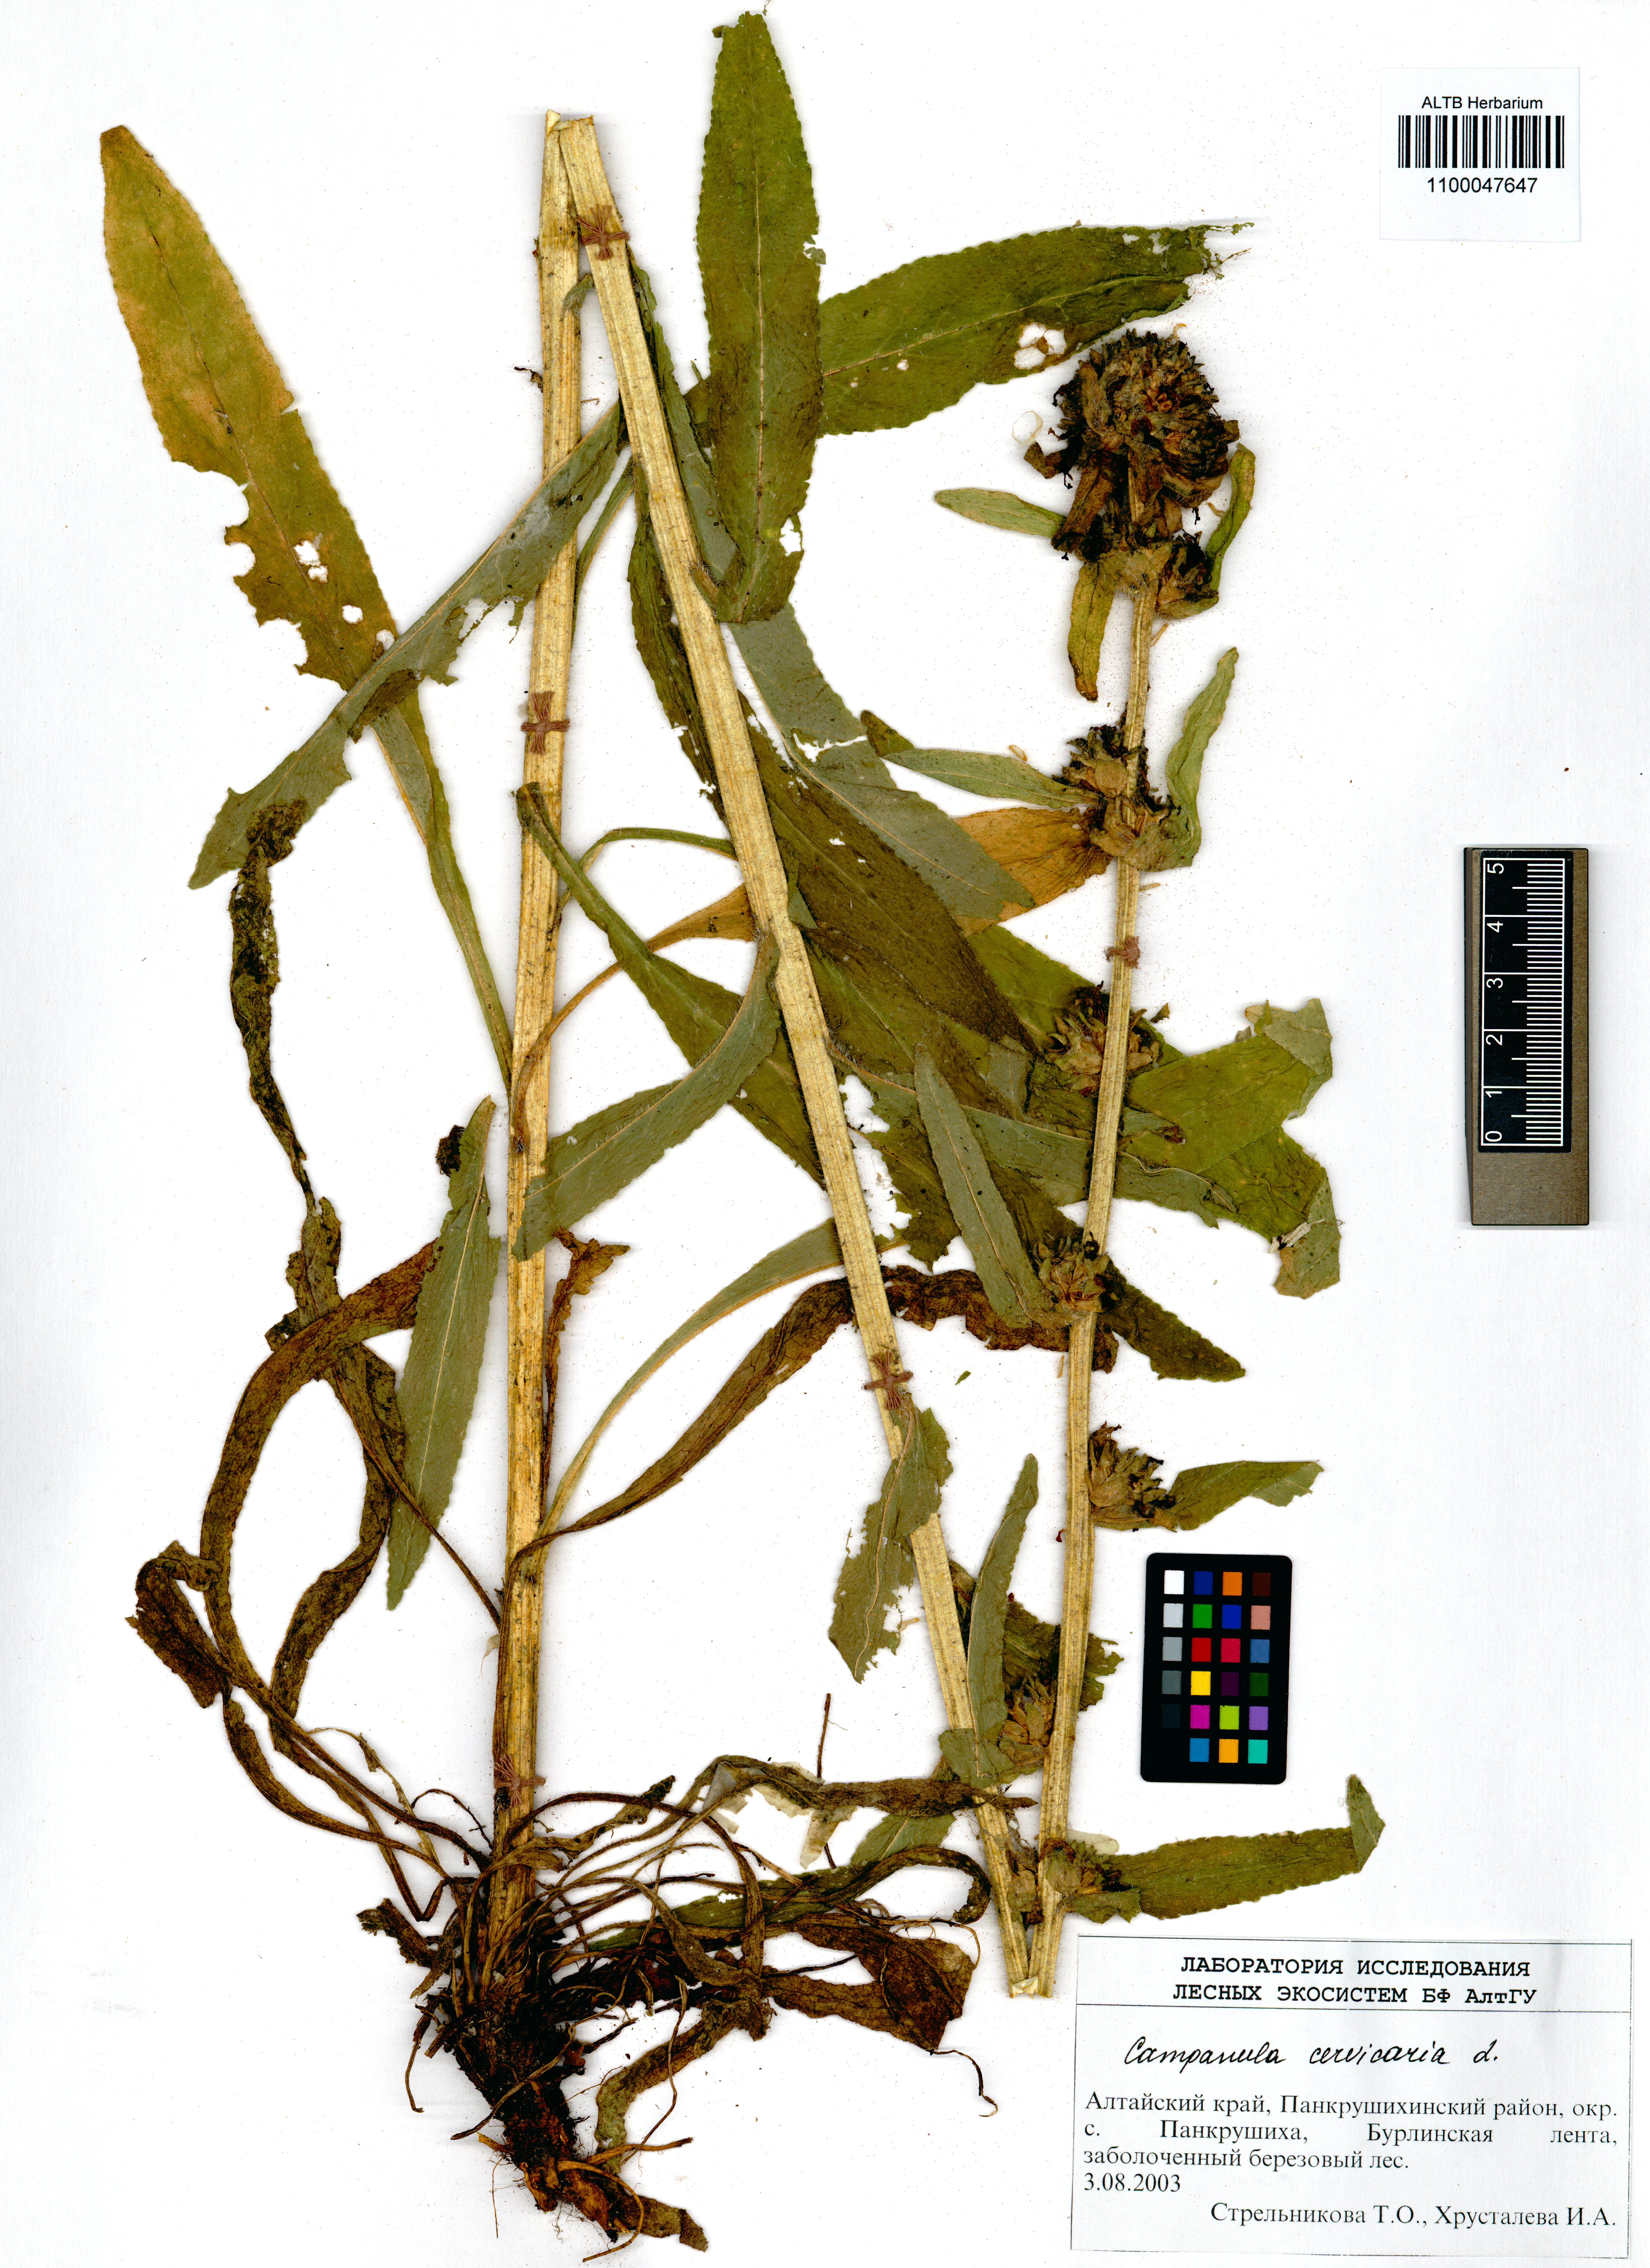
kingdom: Plantae
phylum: Tracheophyta
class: Magnoliopsida
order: Asterales
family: Campanulaceae
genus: Campanula
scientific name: Campanula cervicaria
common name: Bristly bellflower
